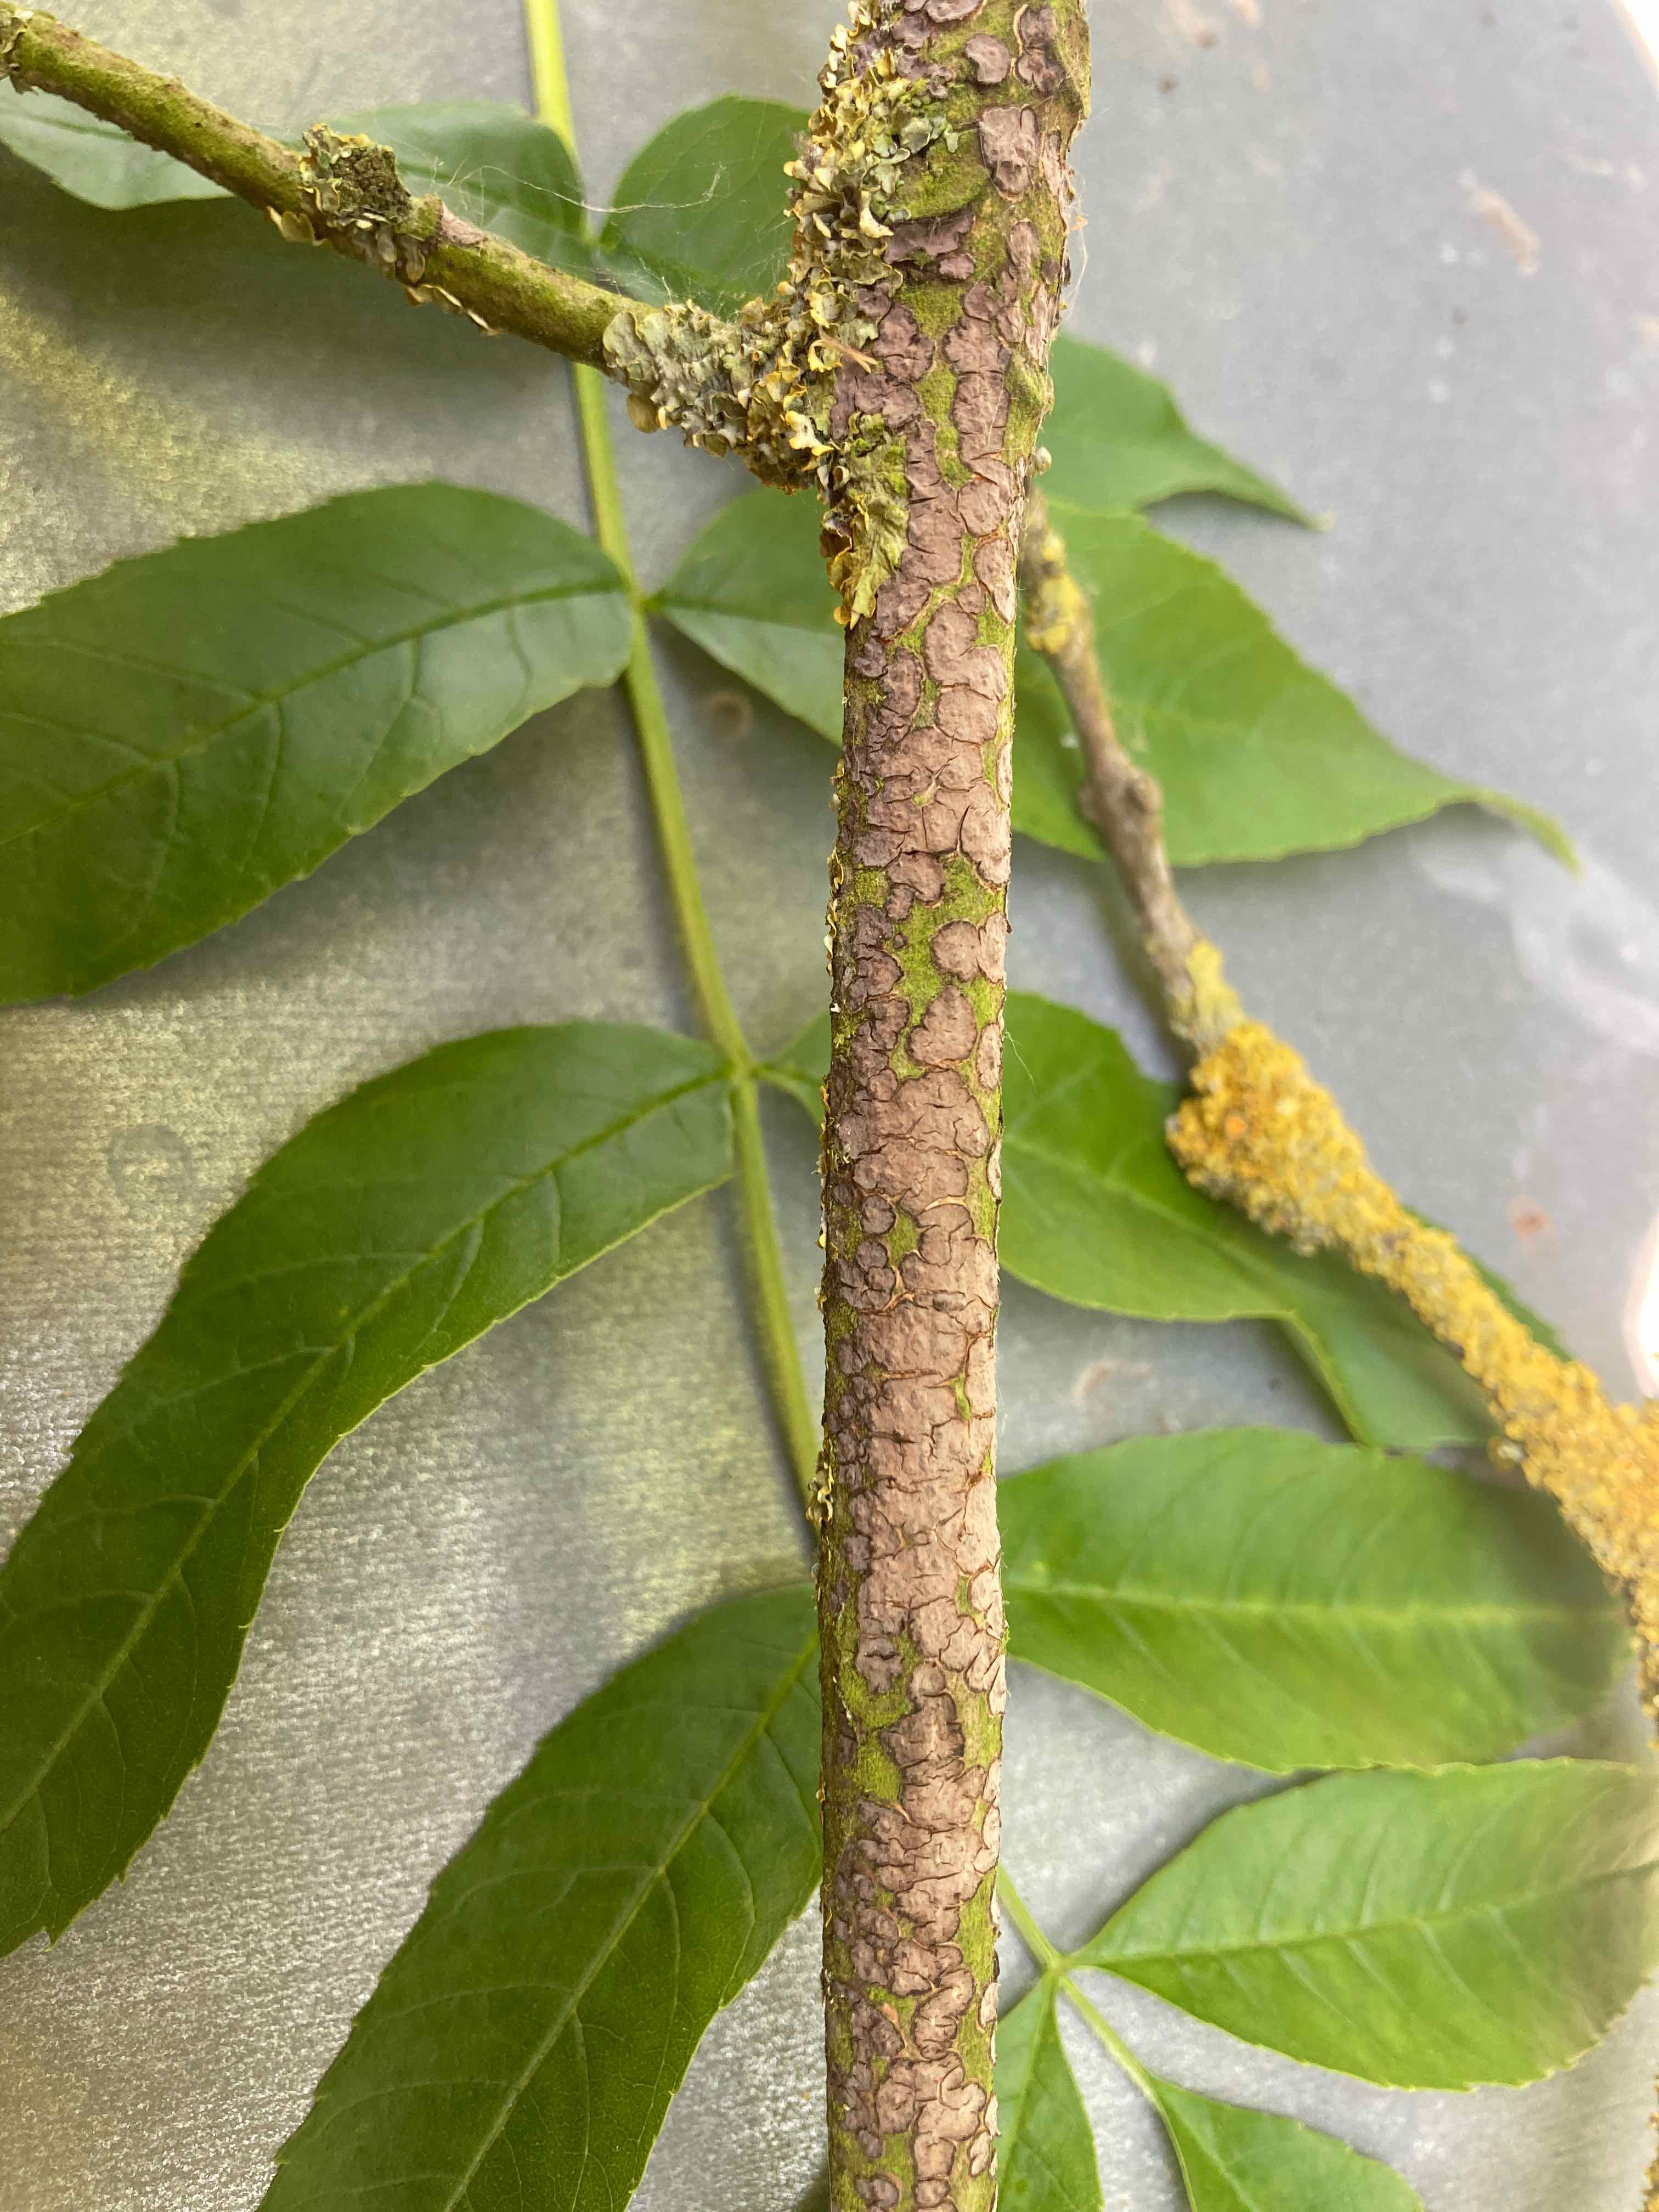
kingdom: Fungi
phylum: Basidiomycota
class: Agaricomycetes
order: Russulales
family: Peniophoraceae
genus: Peniophora
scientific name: Peniophora limitata
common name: mørkrandet voksskind
